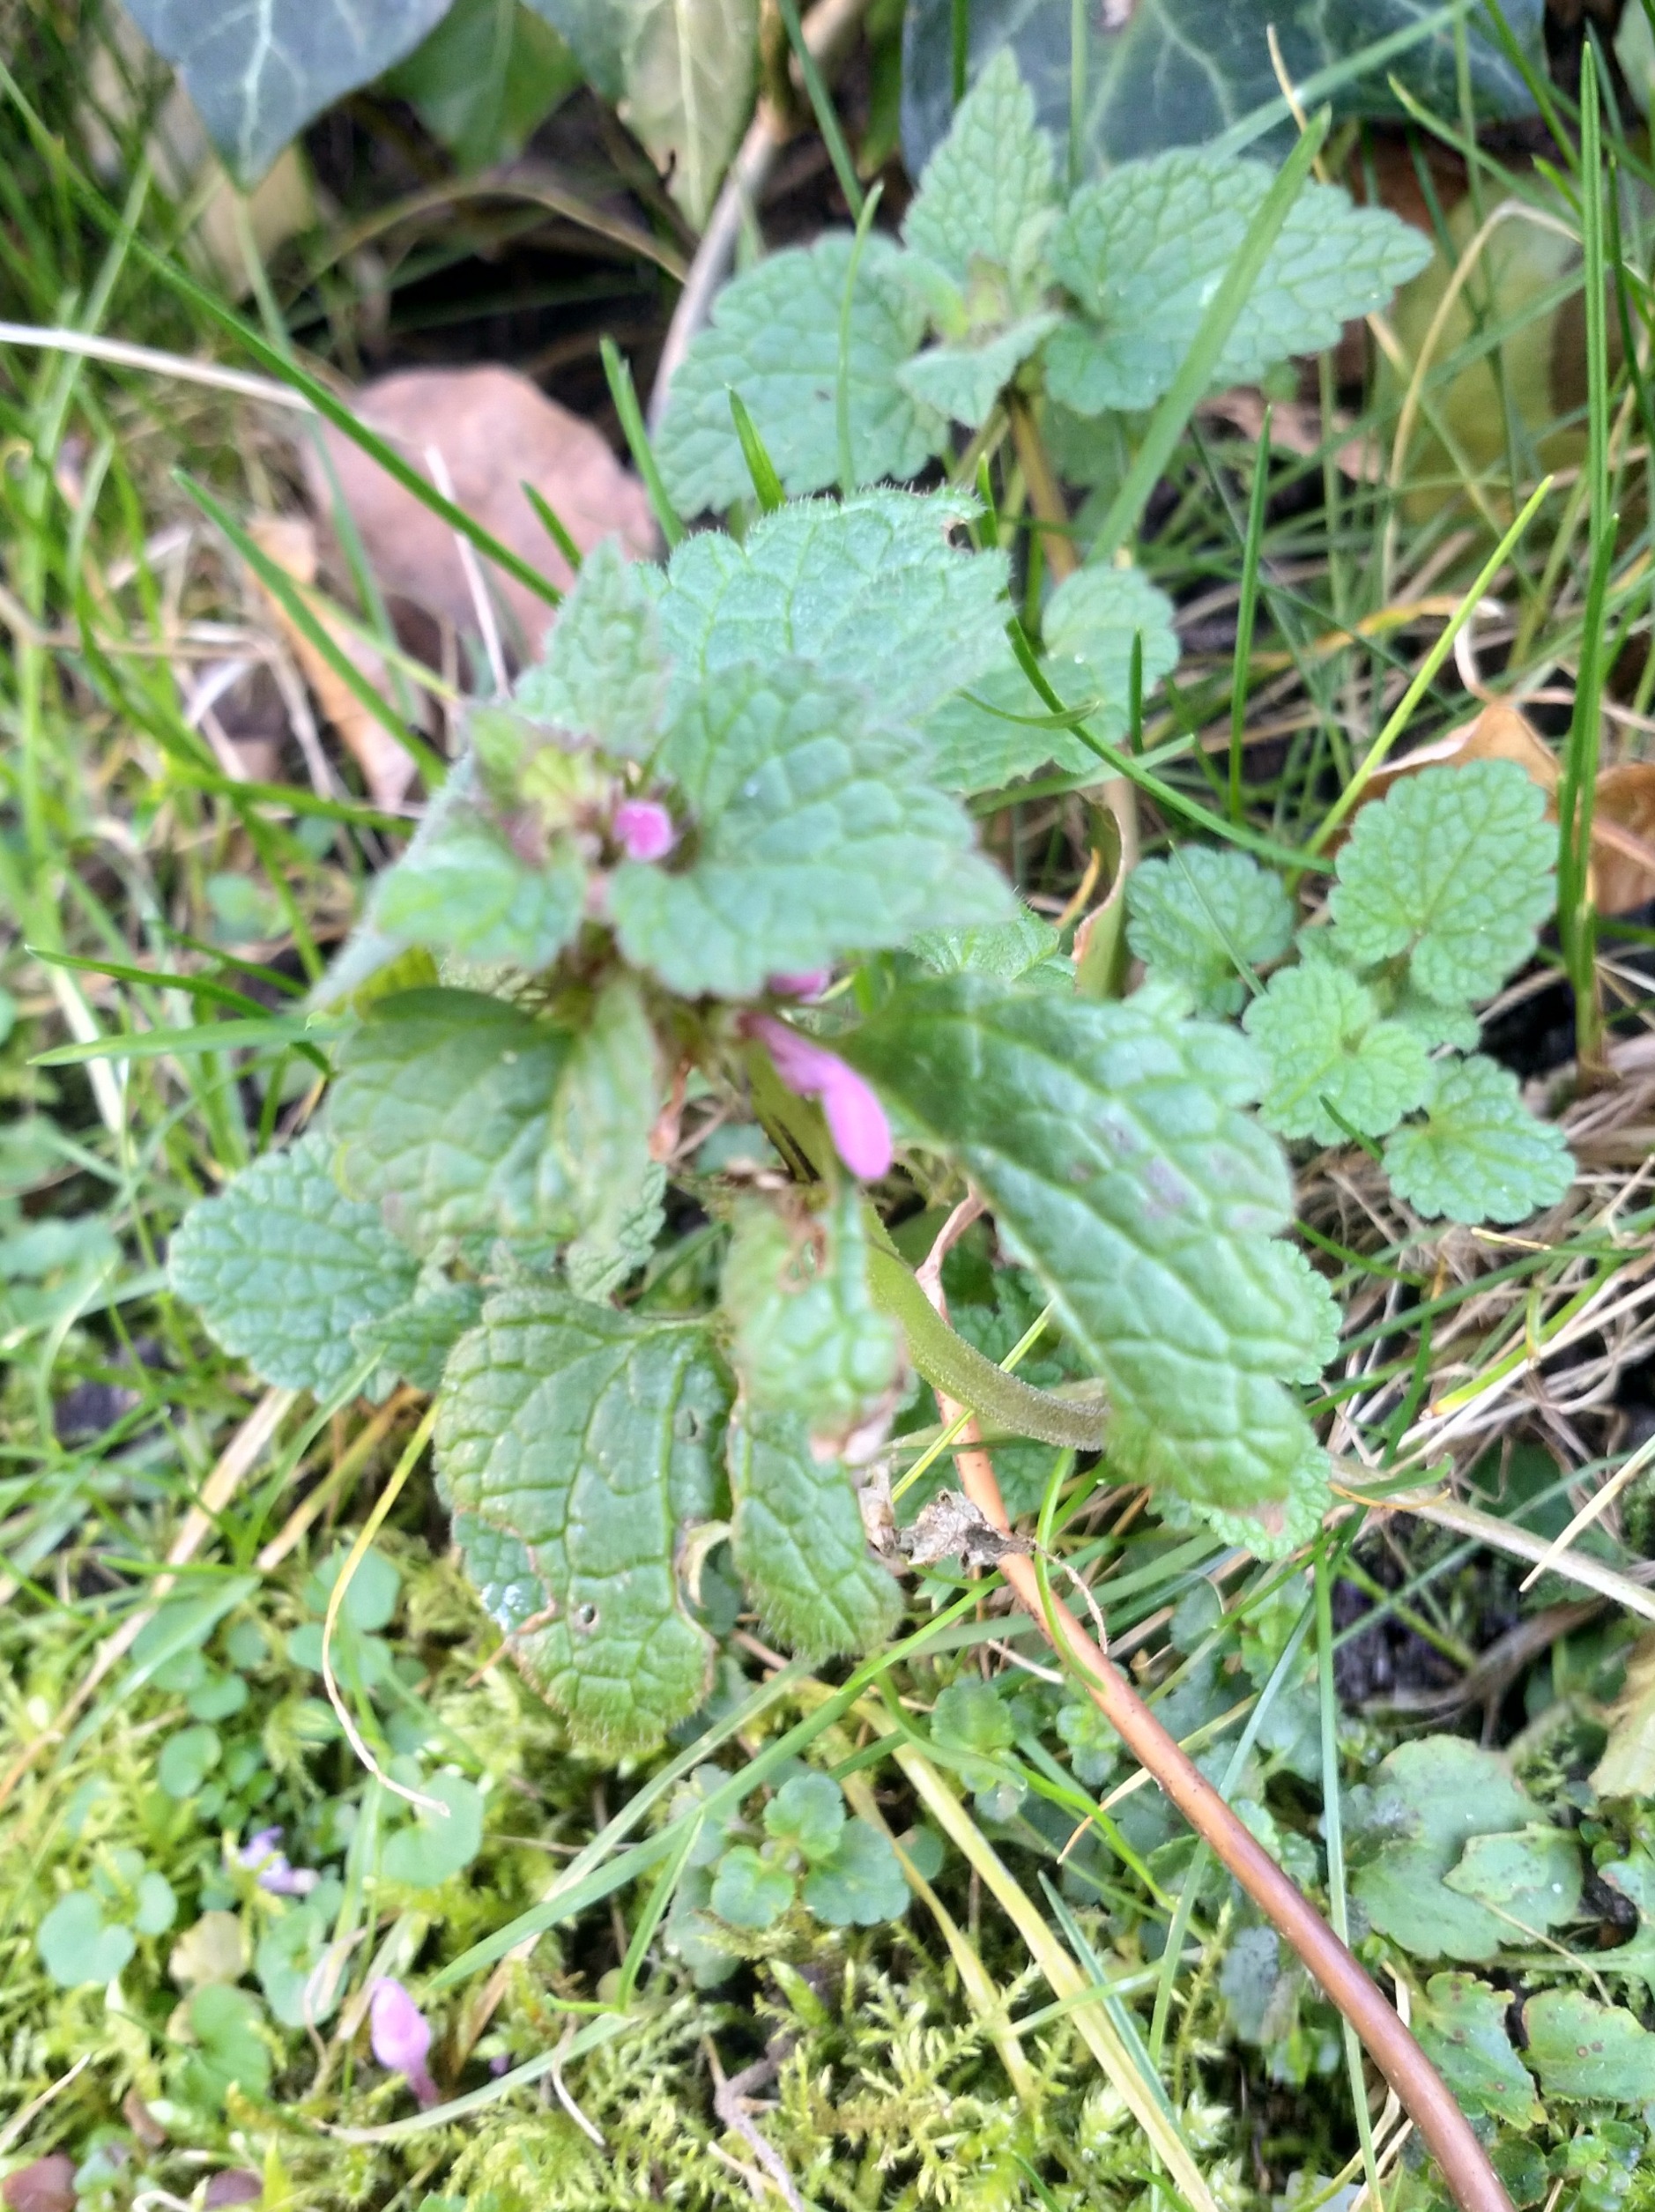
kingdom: Plantae
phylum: Tracheophyta
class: Magnoliopsida
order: Lamiales
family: Lamiaceae
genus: Lamium
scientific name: Lamium purpureum
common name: Rød tvetand
